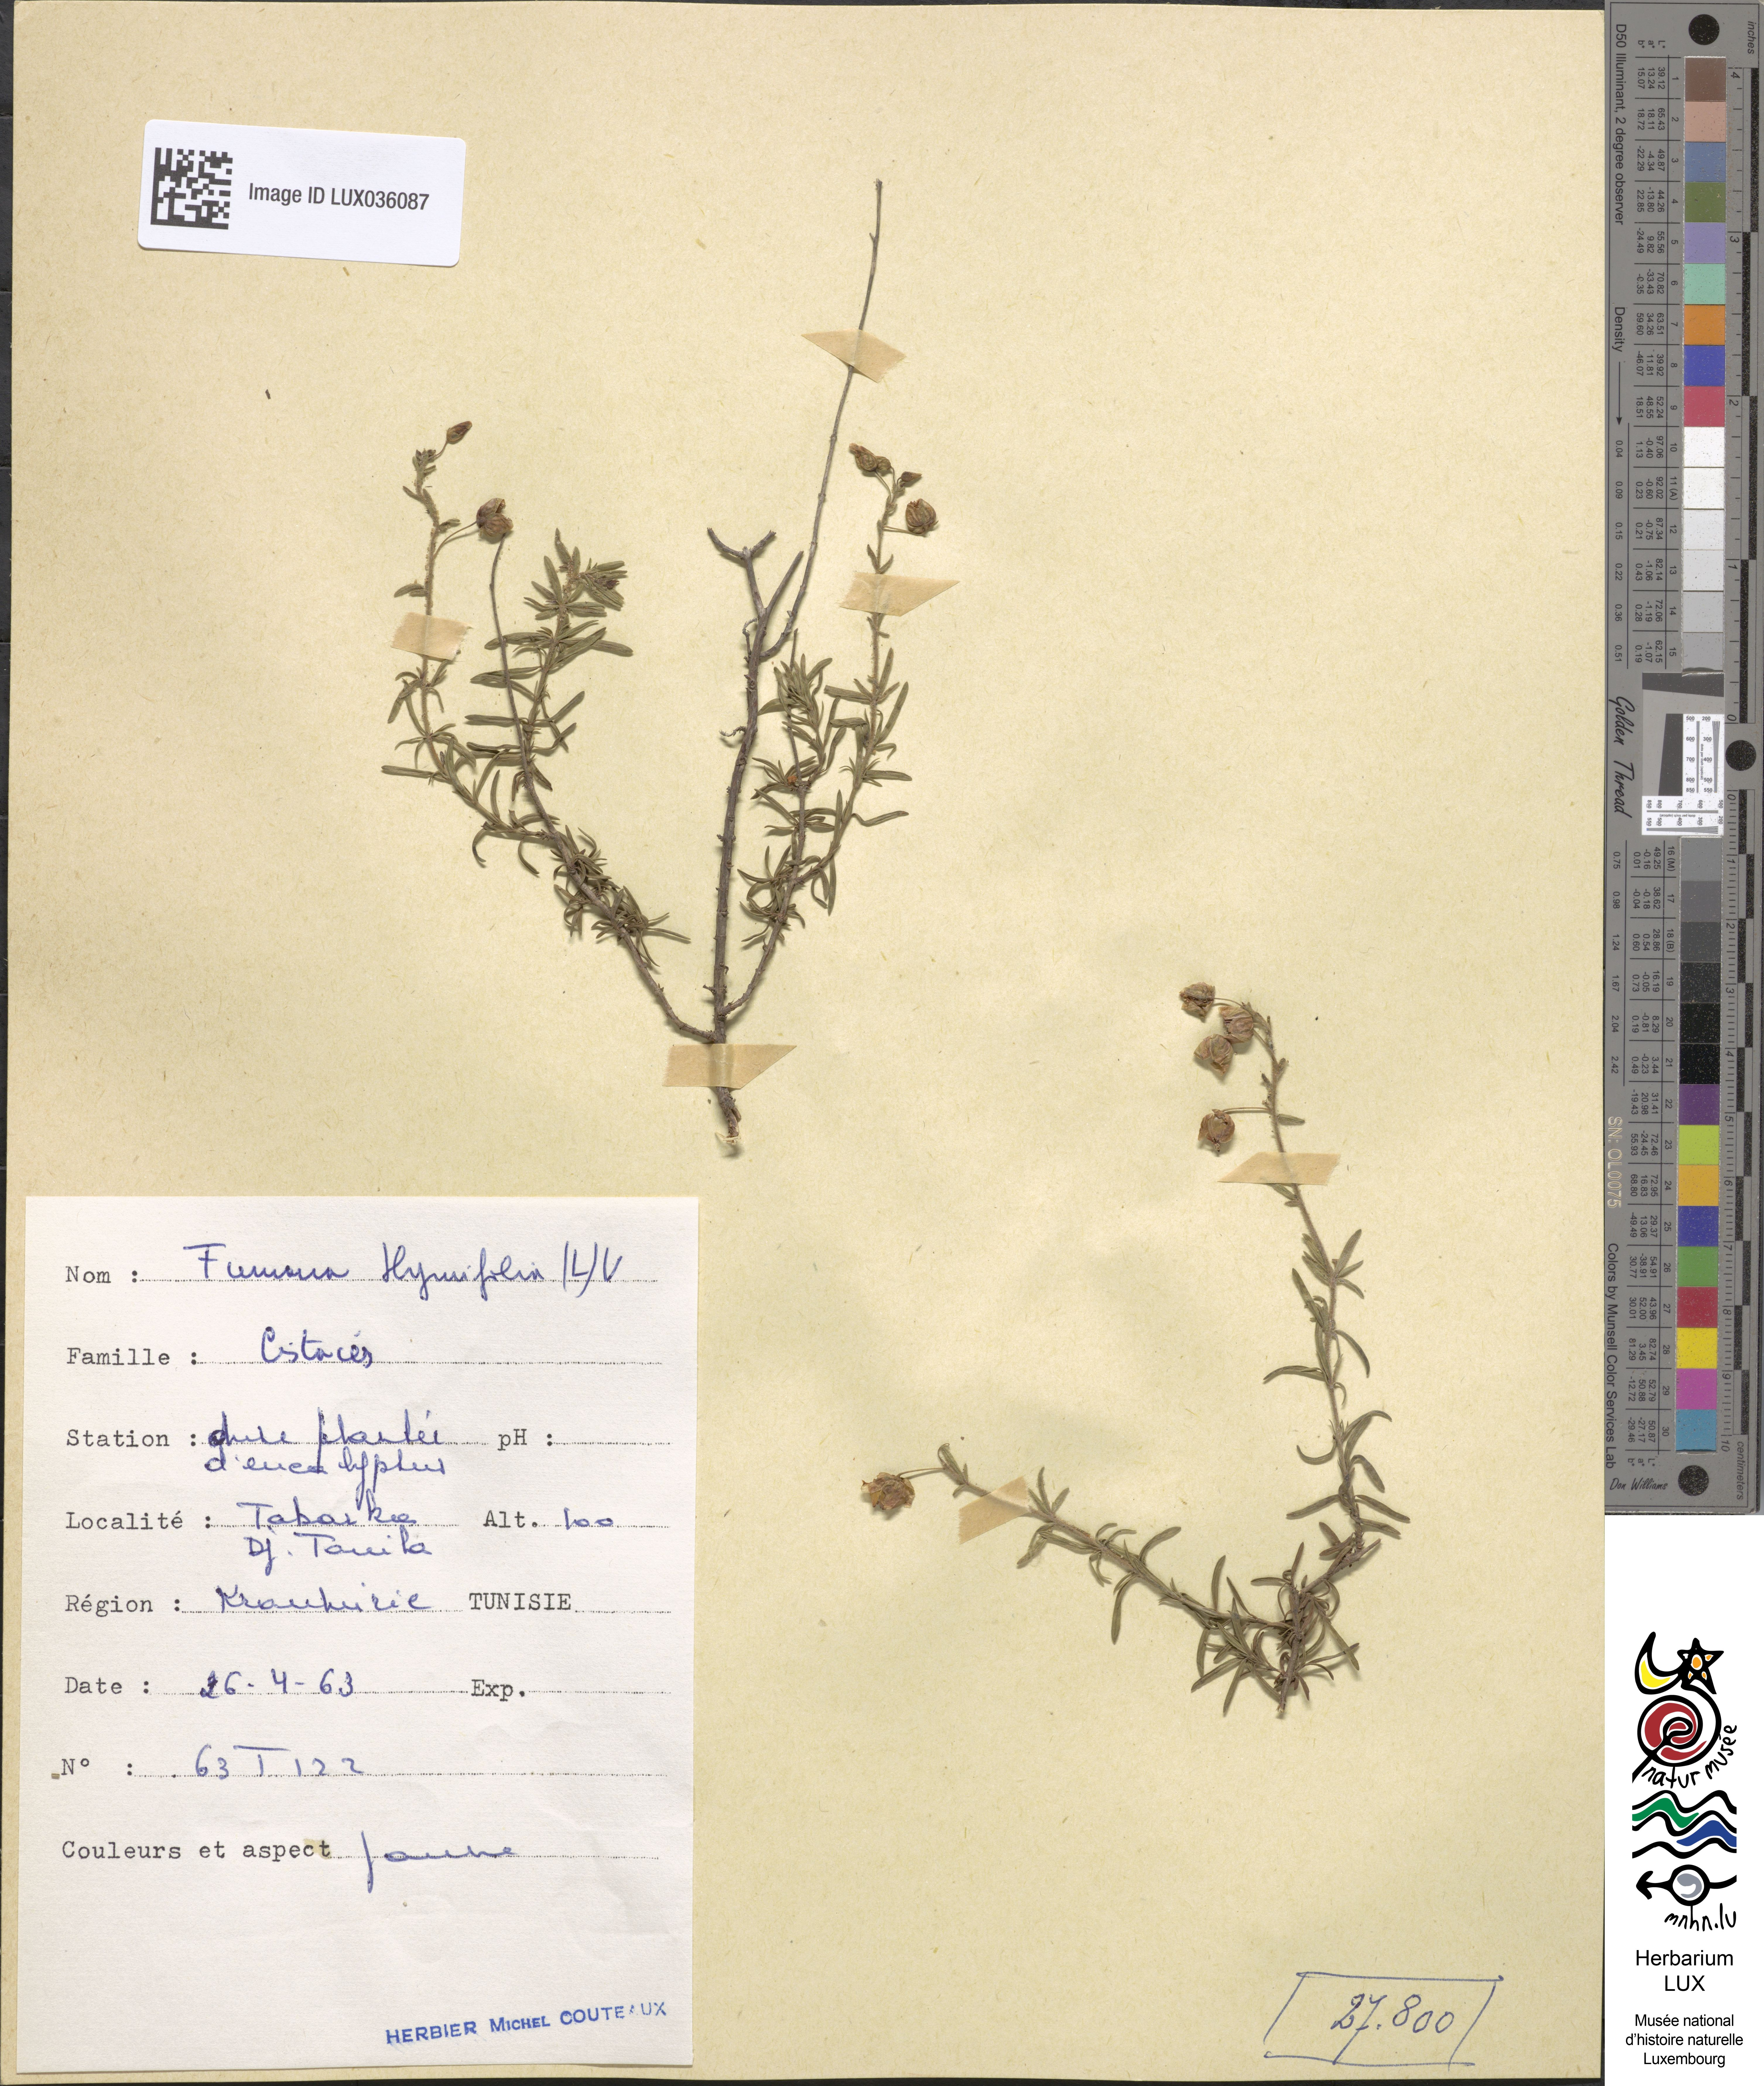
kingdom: Plantae
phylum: Tracheophyta
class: Magnoliopsida
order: Malvales
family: Cistaceae
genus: Fumana
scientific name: Fumana thymifolia
